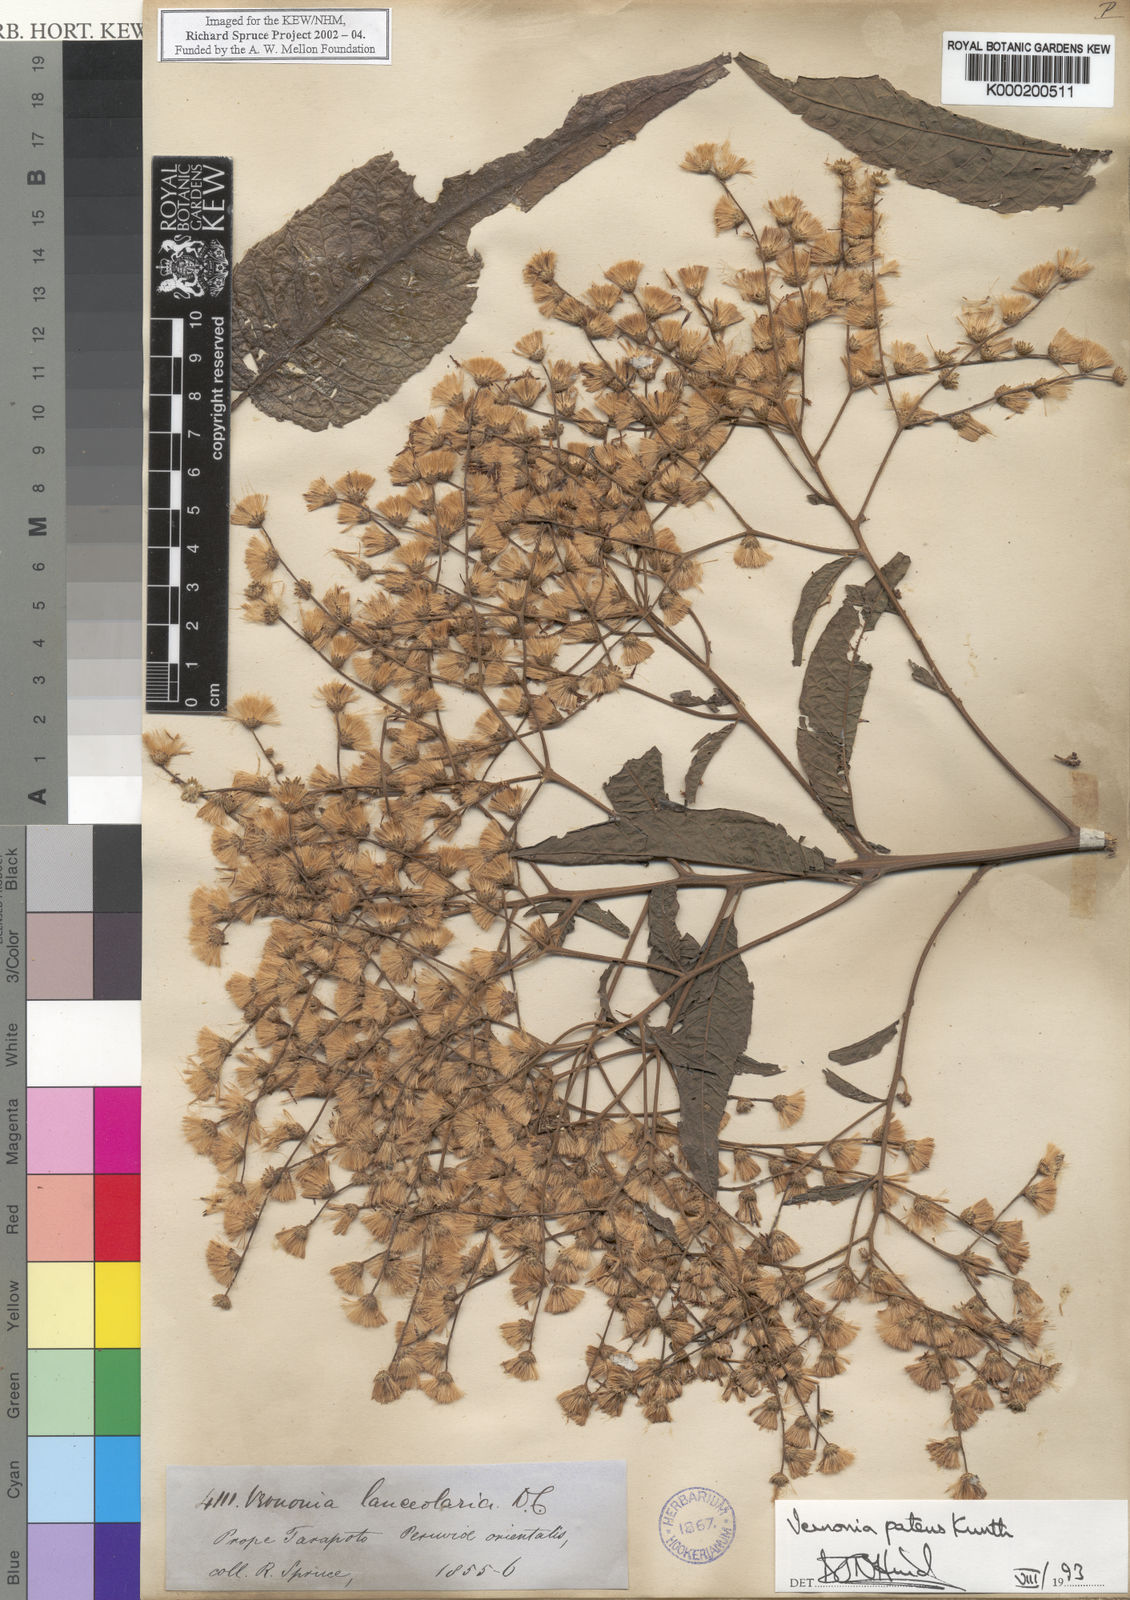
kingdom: Plantae
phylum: Tracheophyta
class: Magnoliopsida
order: Asterales
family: Asteraceae
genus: Vernonanthura
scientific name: Vernonanthura patens
